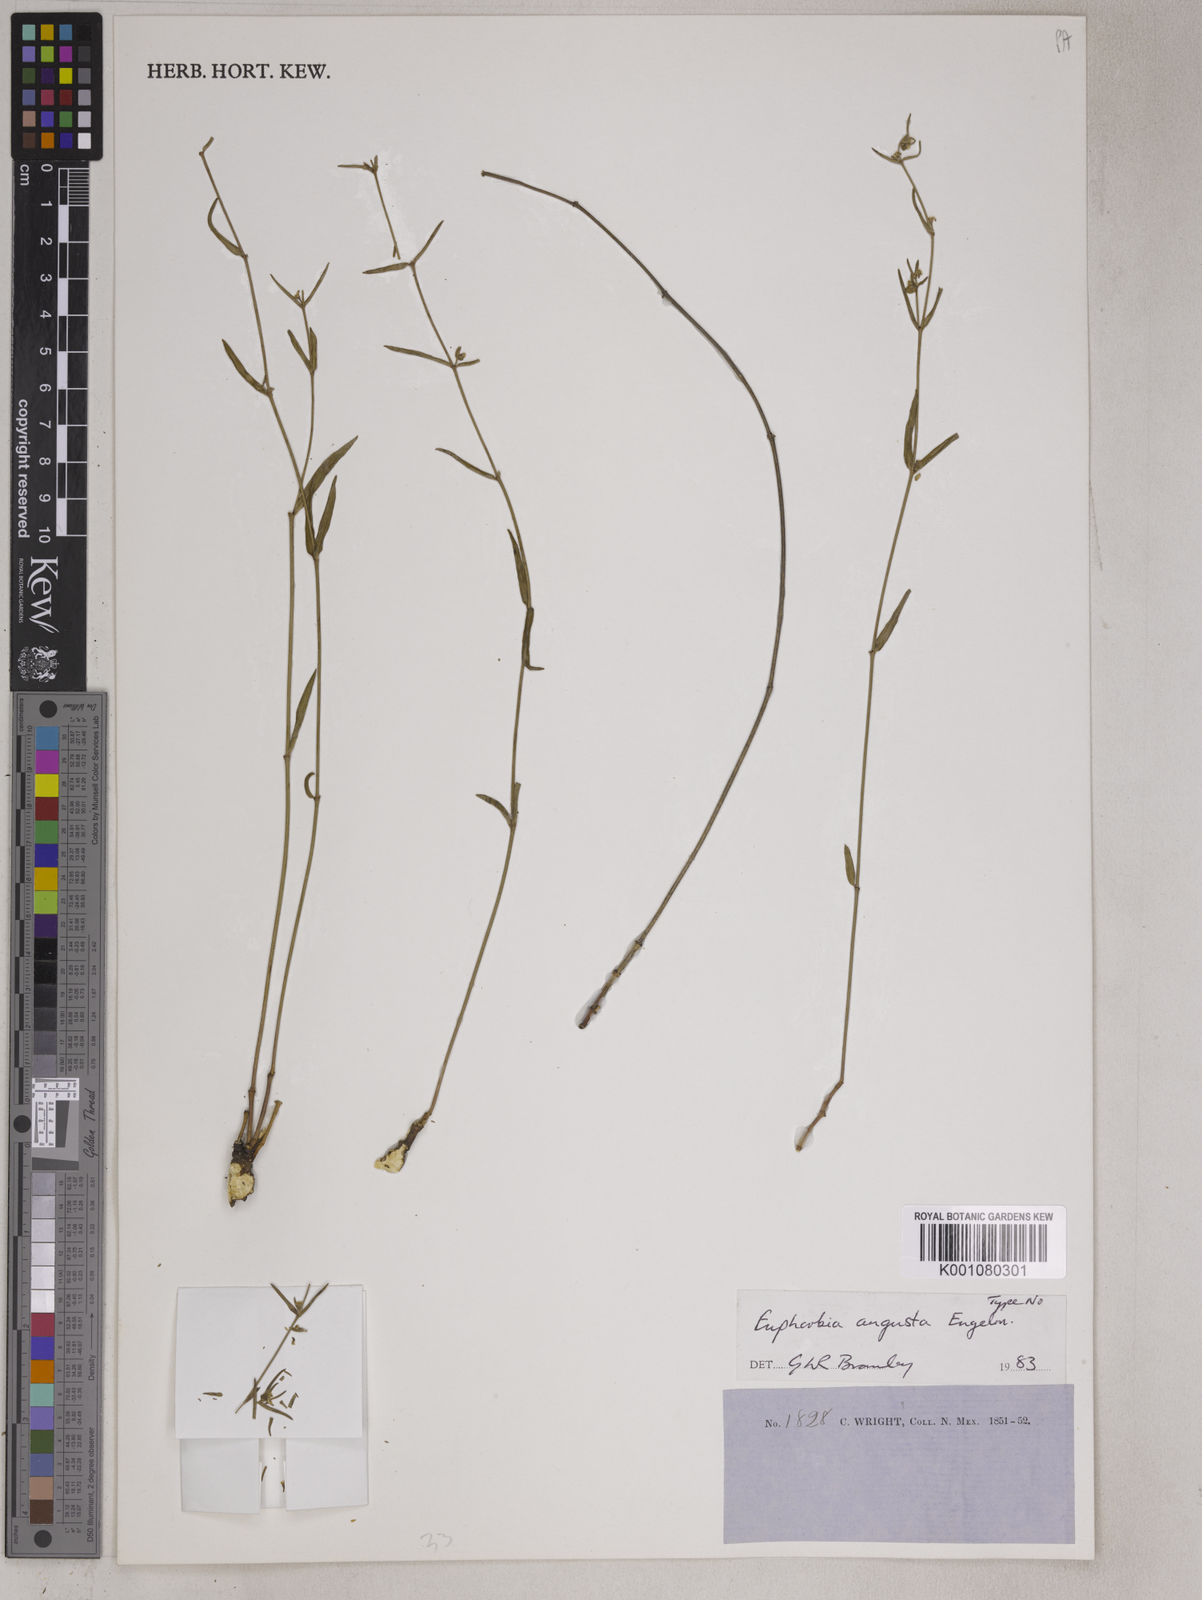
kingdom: Plantae
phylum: Tracheophyta
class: Magnoliopsida
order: Malpighiales
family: Euphorbiaceae
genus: Euphorbia
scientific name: Euphorbia angusta
